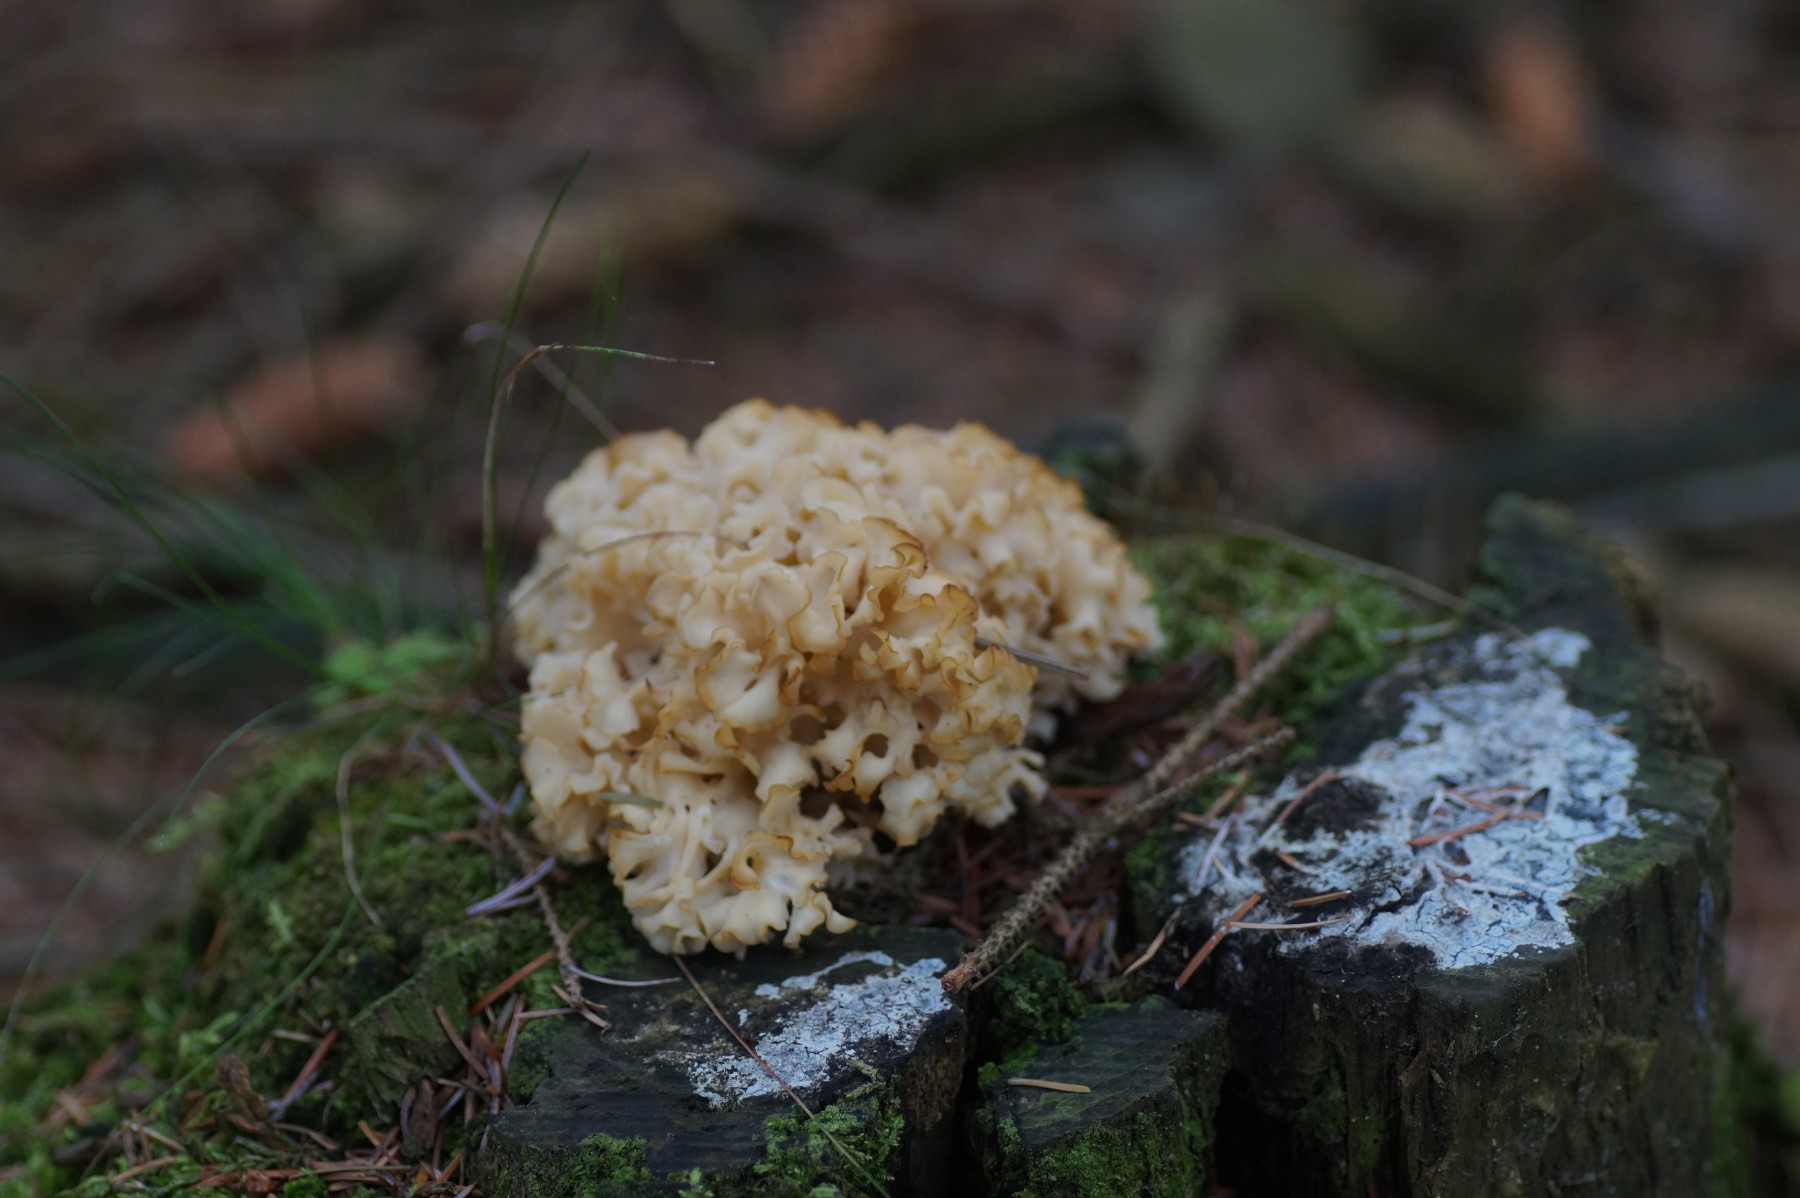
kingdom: Fungi
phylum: Basidiomycota
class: Agaricomycetes
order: Polyporales
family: Sparassidaceae
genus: Sparassis
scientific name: Sparassis crispa
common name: kruset blomkålssvamp
